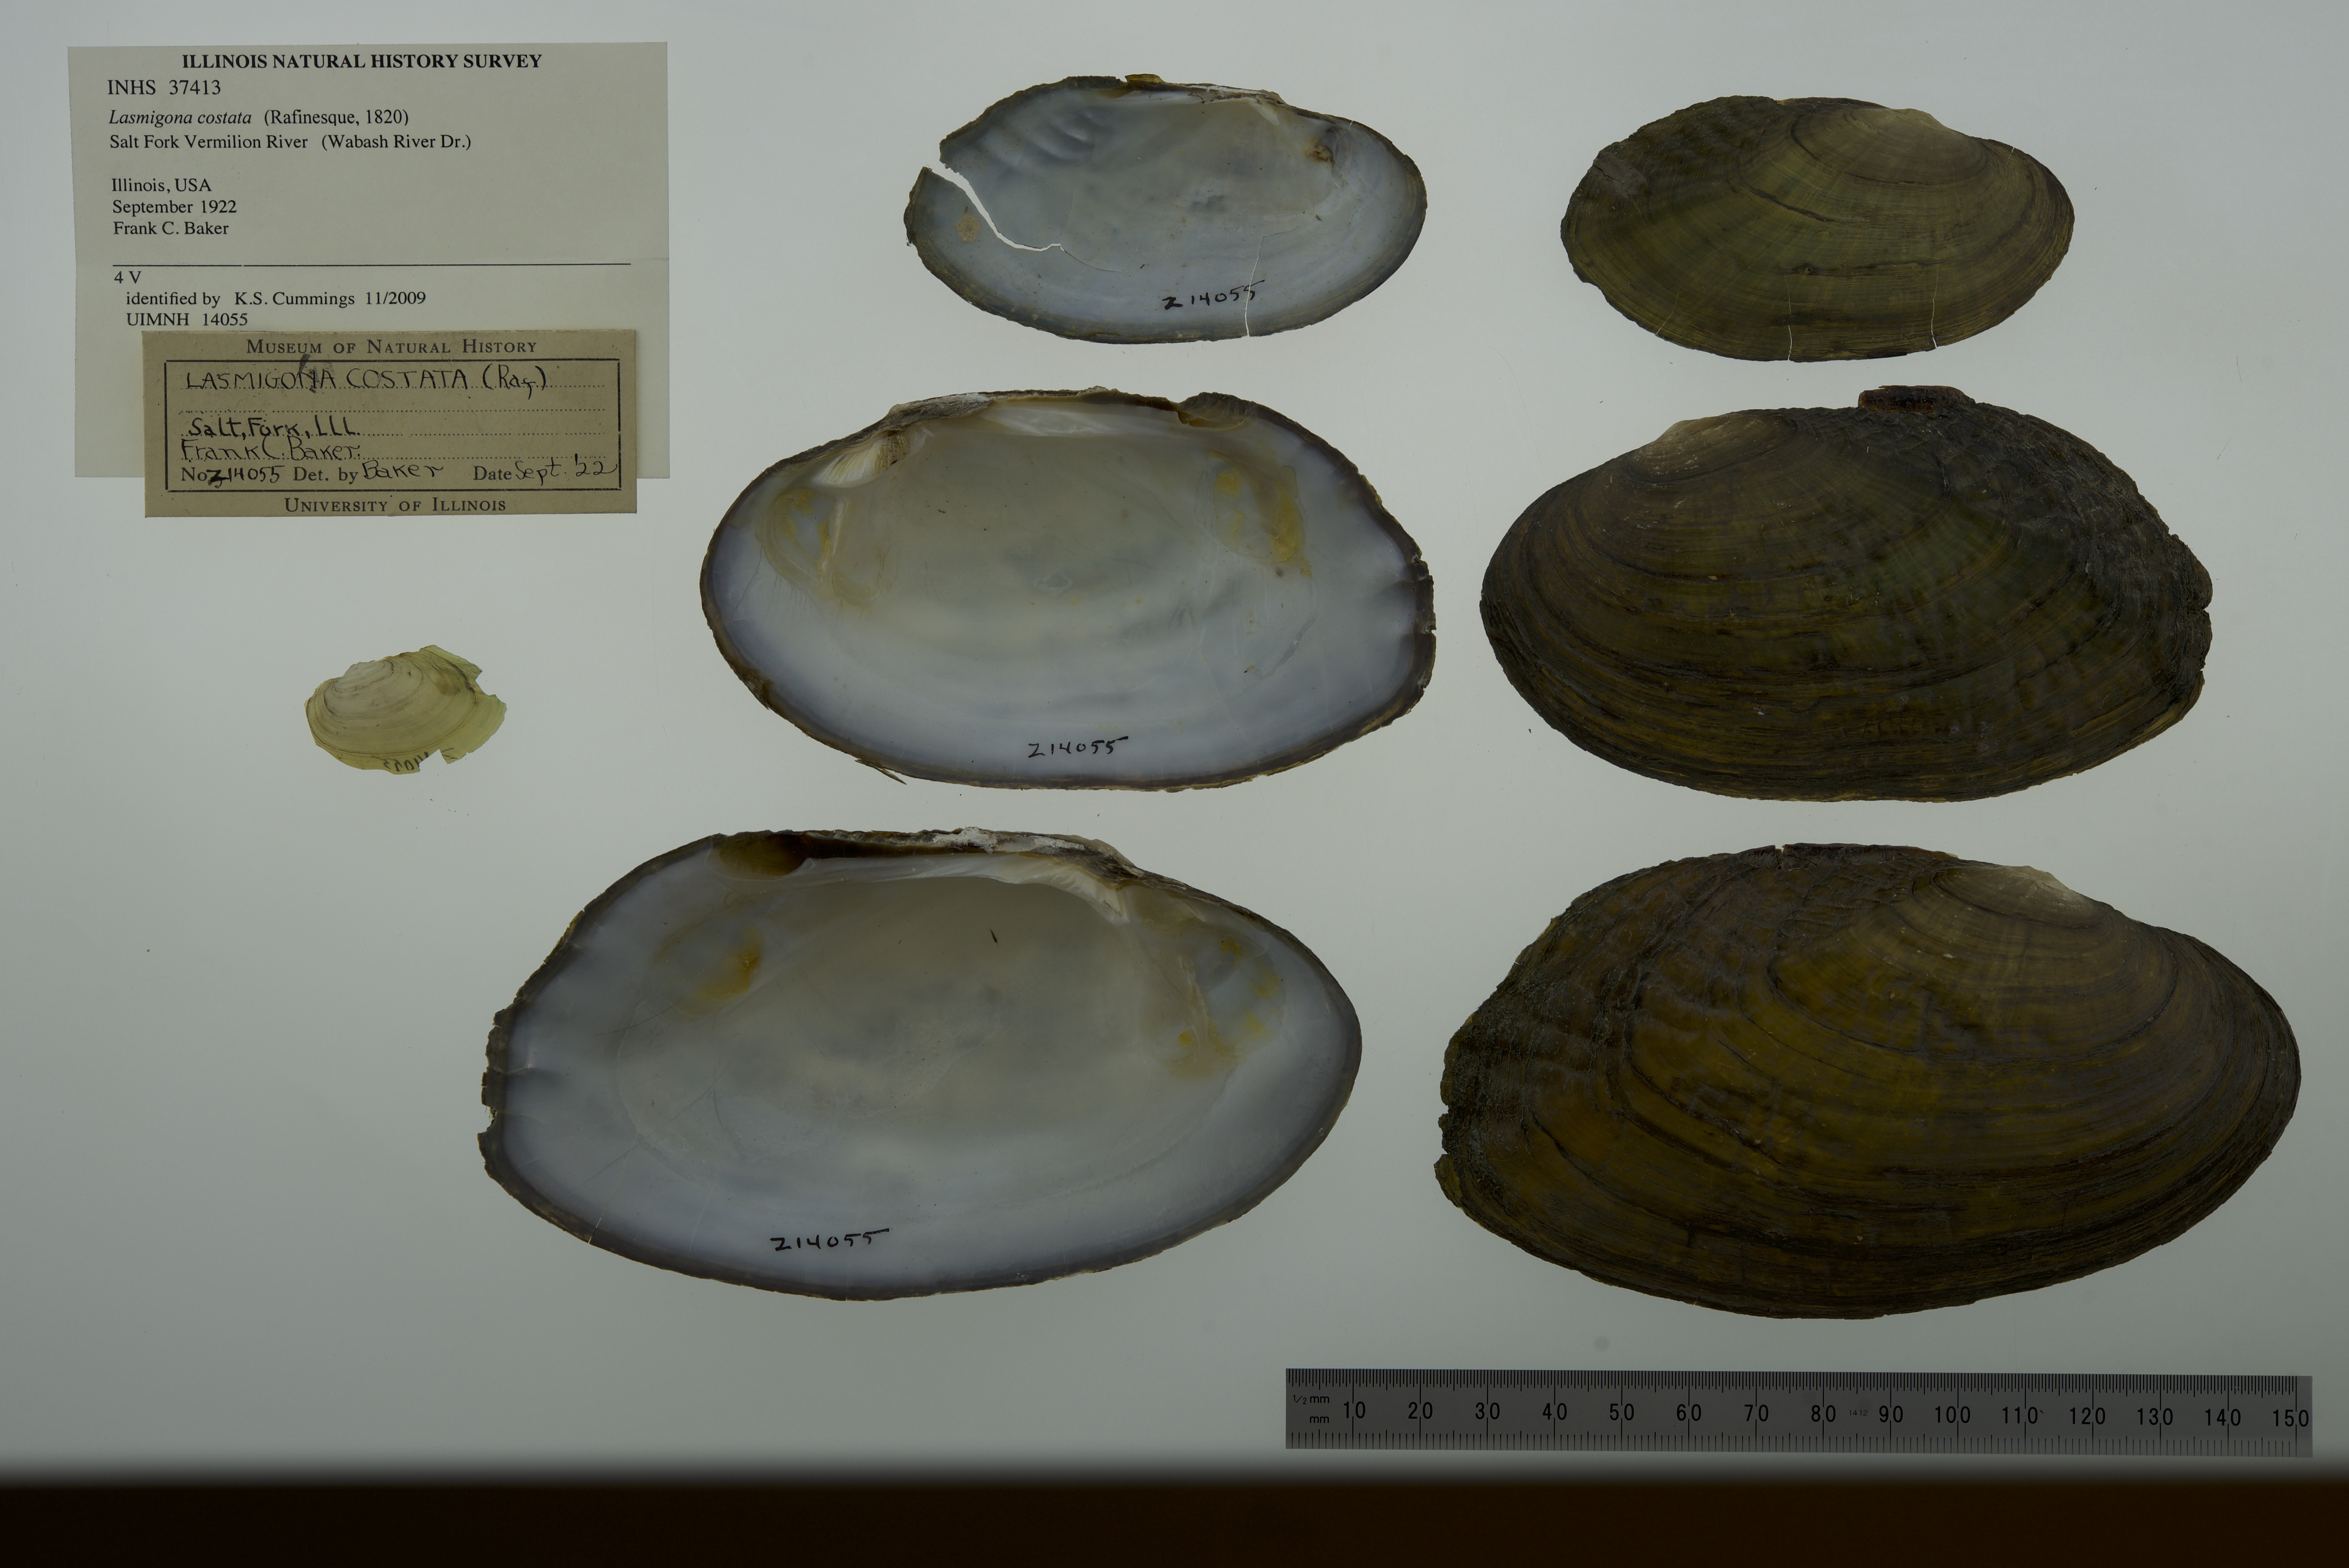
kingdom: Animalia
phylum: Mollusca
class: Bivalvia
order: Unionida
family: Unionidae
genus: Lasmigona
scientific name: Lasmigona costata
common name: Flutedshell
